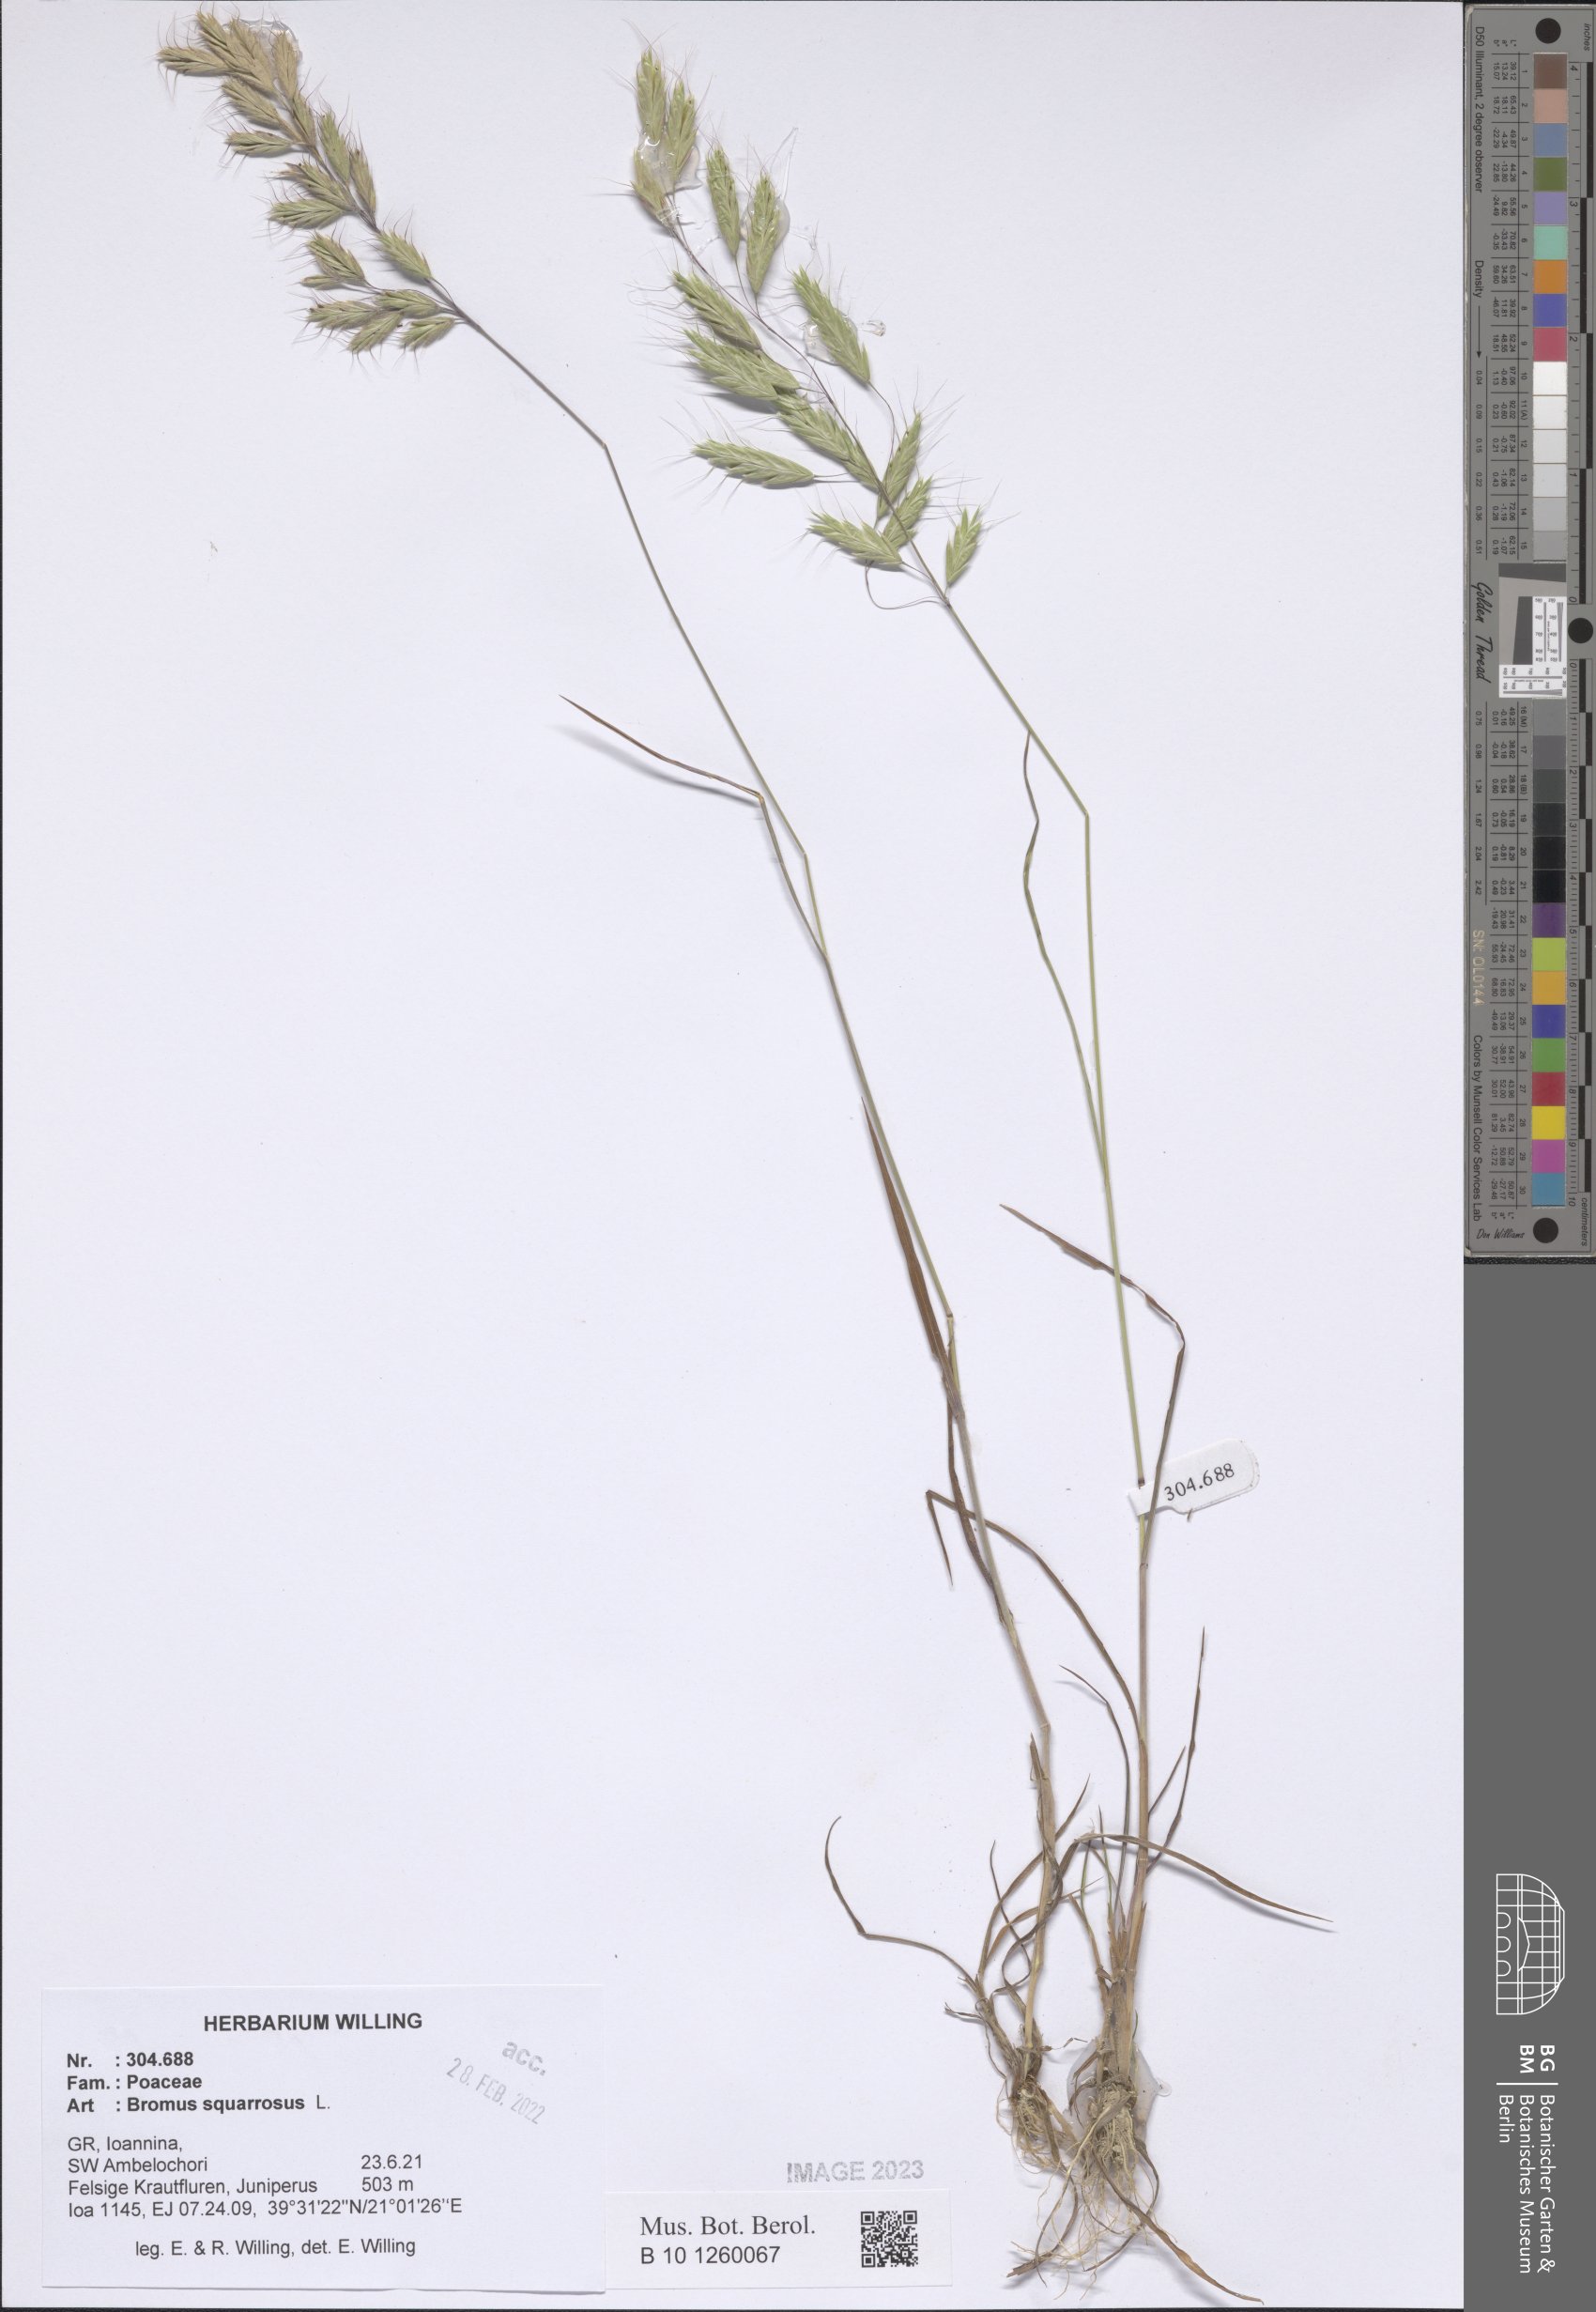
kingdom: Plantae
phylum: Tracheophyta
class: Liliopsida
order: Poales
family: Poaceae
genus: Bromus
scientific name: Bromus squarrosus
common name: Corn brome
